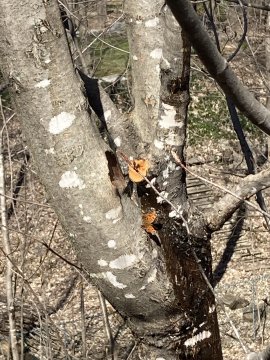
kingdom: Animalia
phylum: Arthropoda
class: Insecta
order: Lepidoptera
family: Nymphalidae
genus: Polygonia
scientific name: Polygonia comma
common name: Eastern Comma
